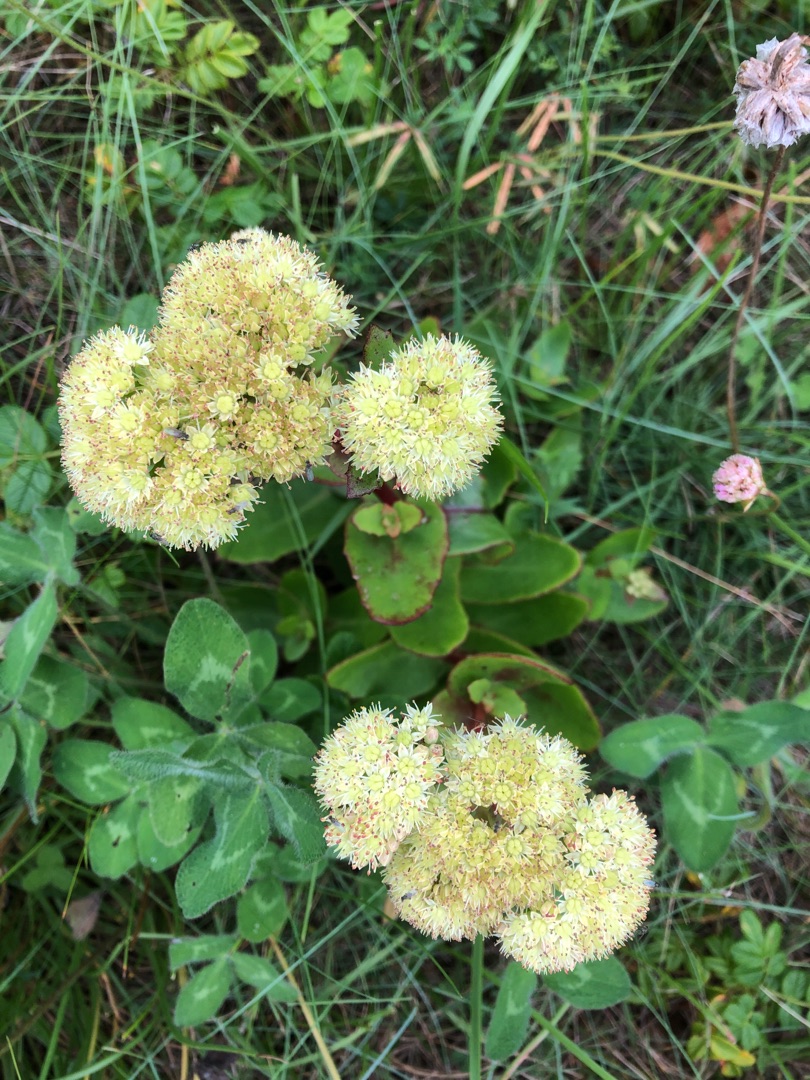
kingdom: Plantae
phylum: Tracheophyta
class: Magnoliopsida
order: Saxifragales
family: Crassulaceae
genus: Hylotelephium
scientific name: Hylotelephium maximum
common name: Almindelig sankthansurt
